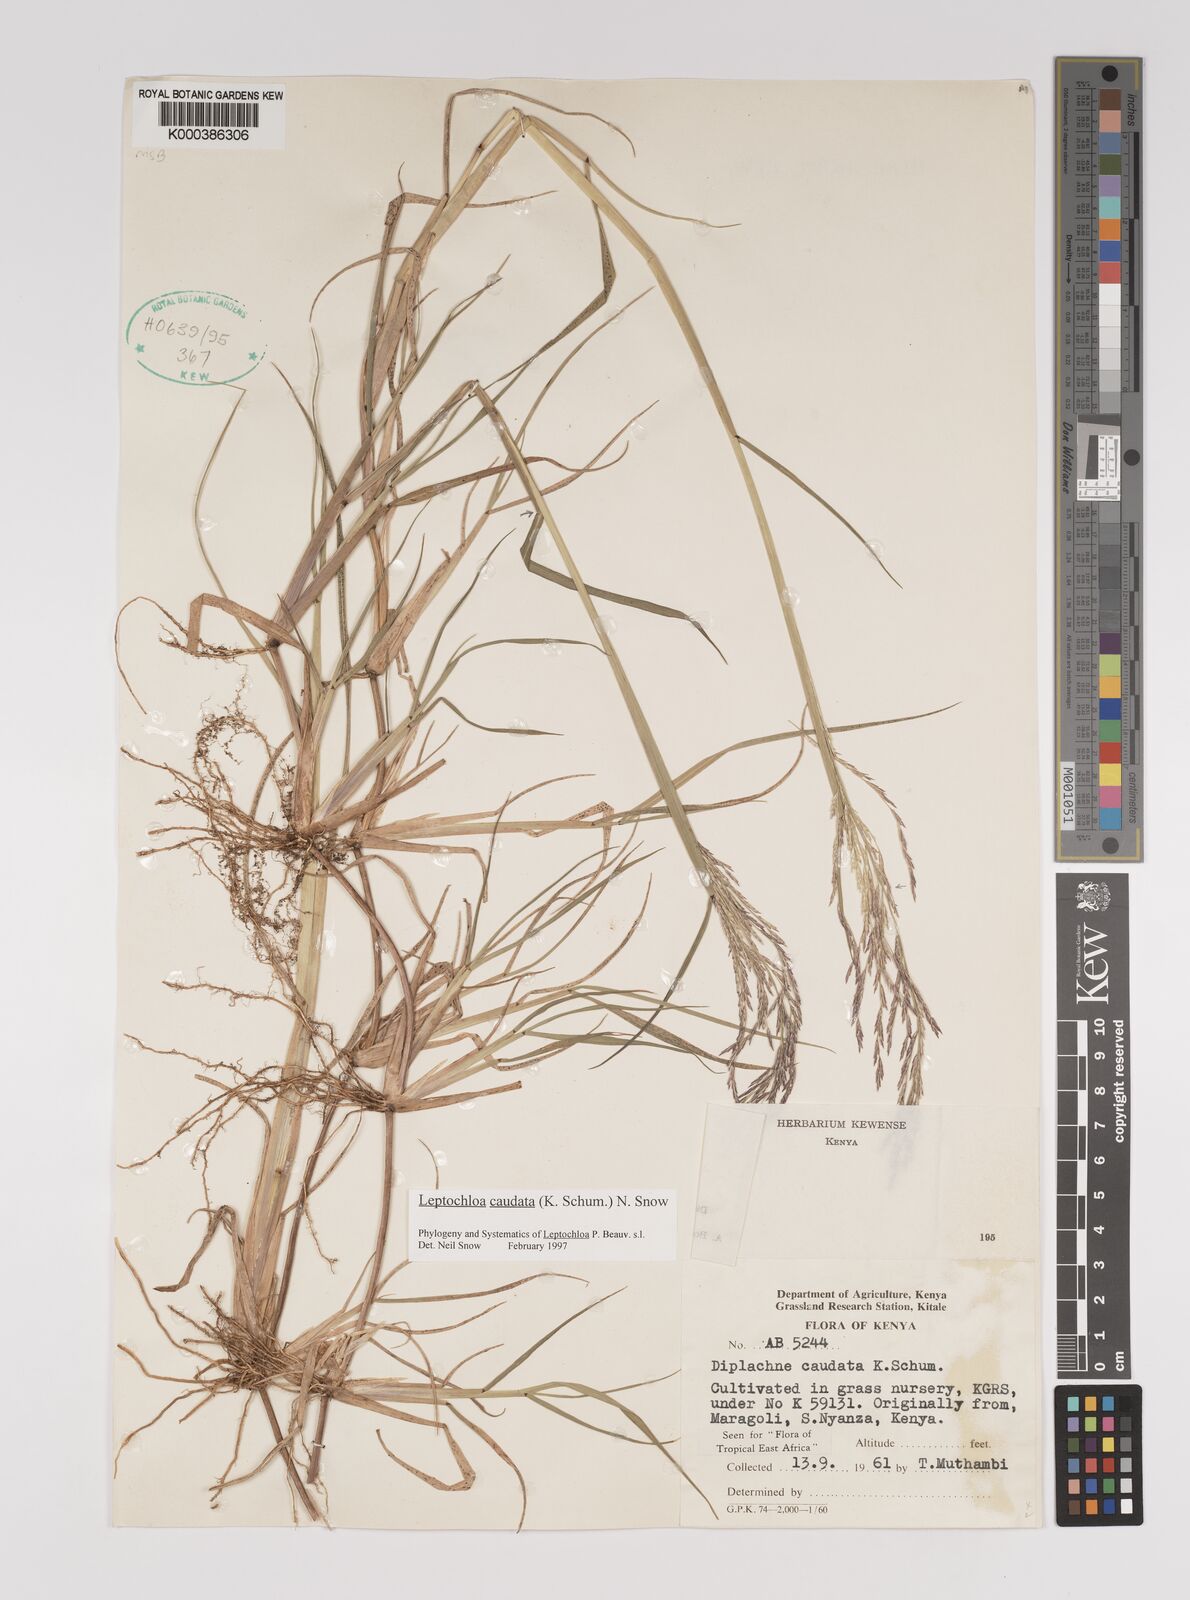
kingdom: Plantae
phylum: Tracheophyta
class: Liliopsida
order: Poales
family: Poaceae
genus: Leptochloa
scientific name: Leptochloa caudata
